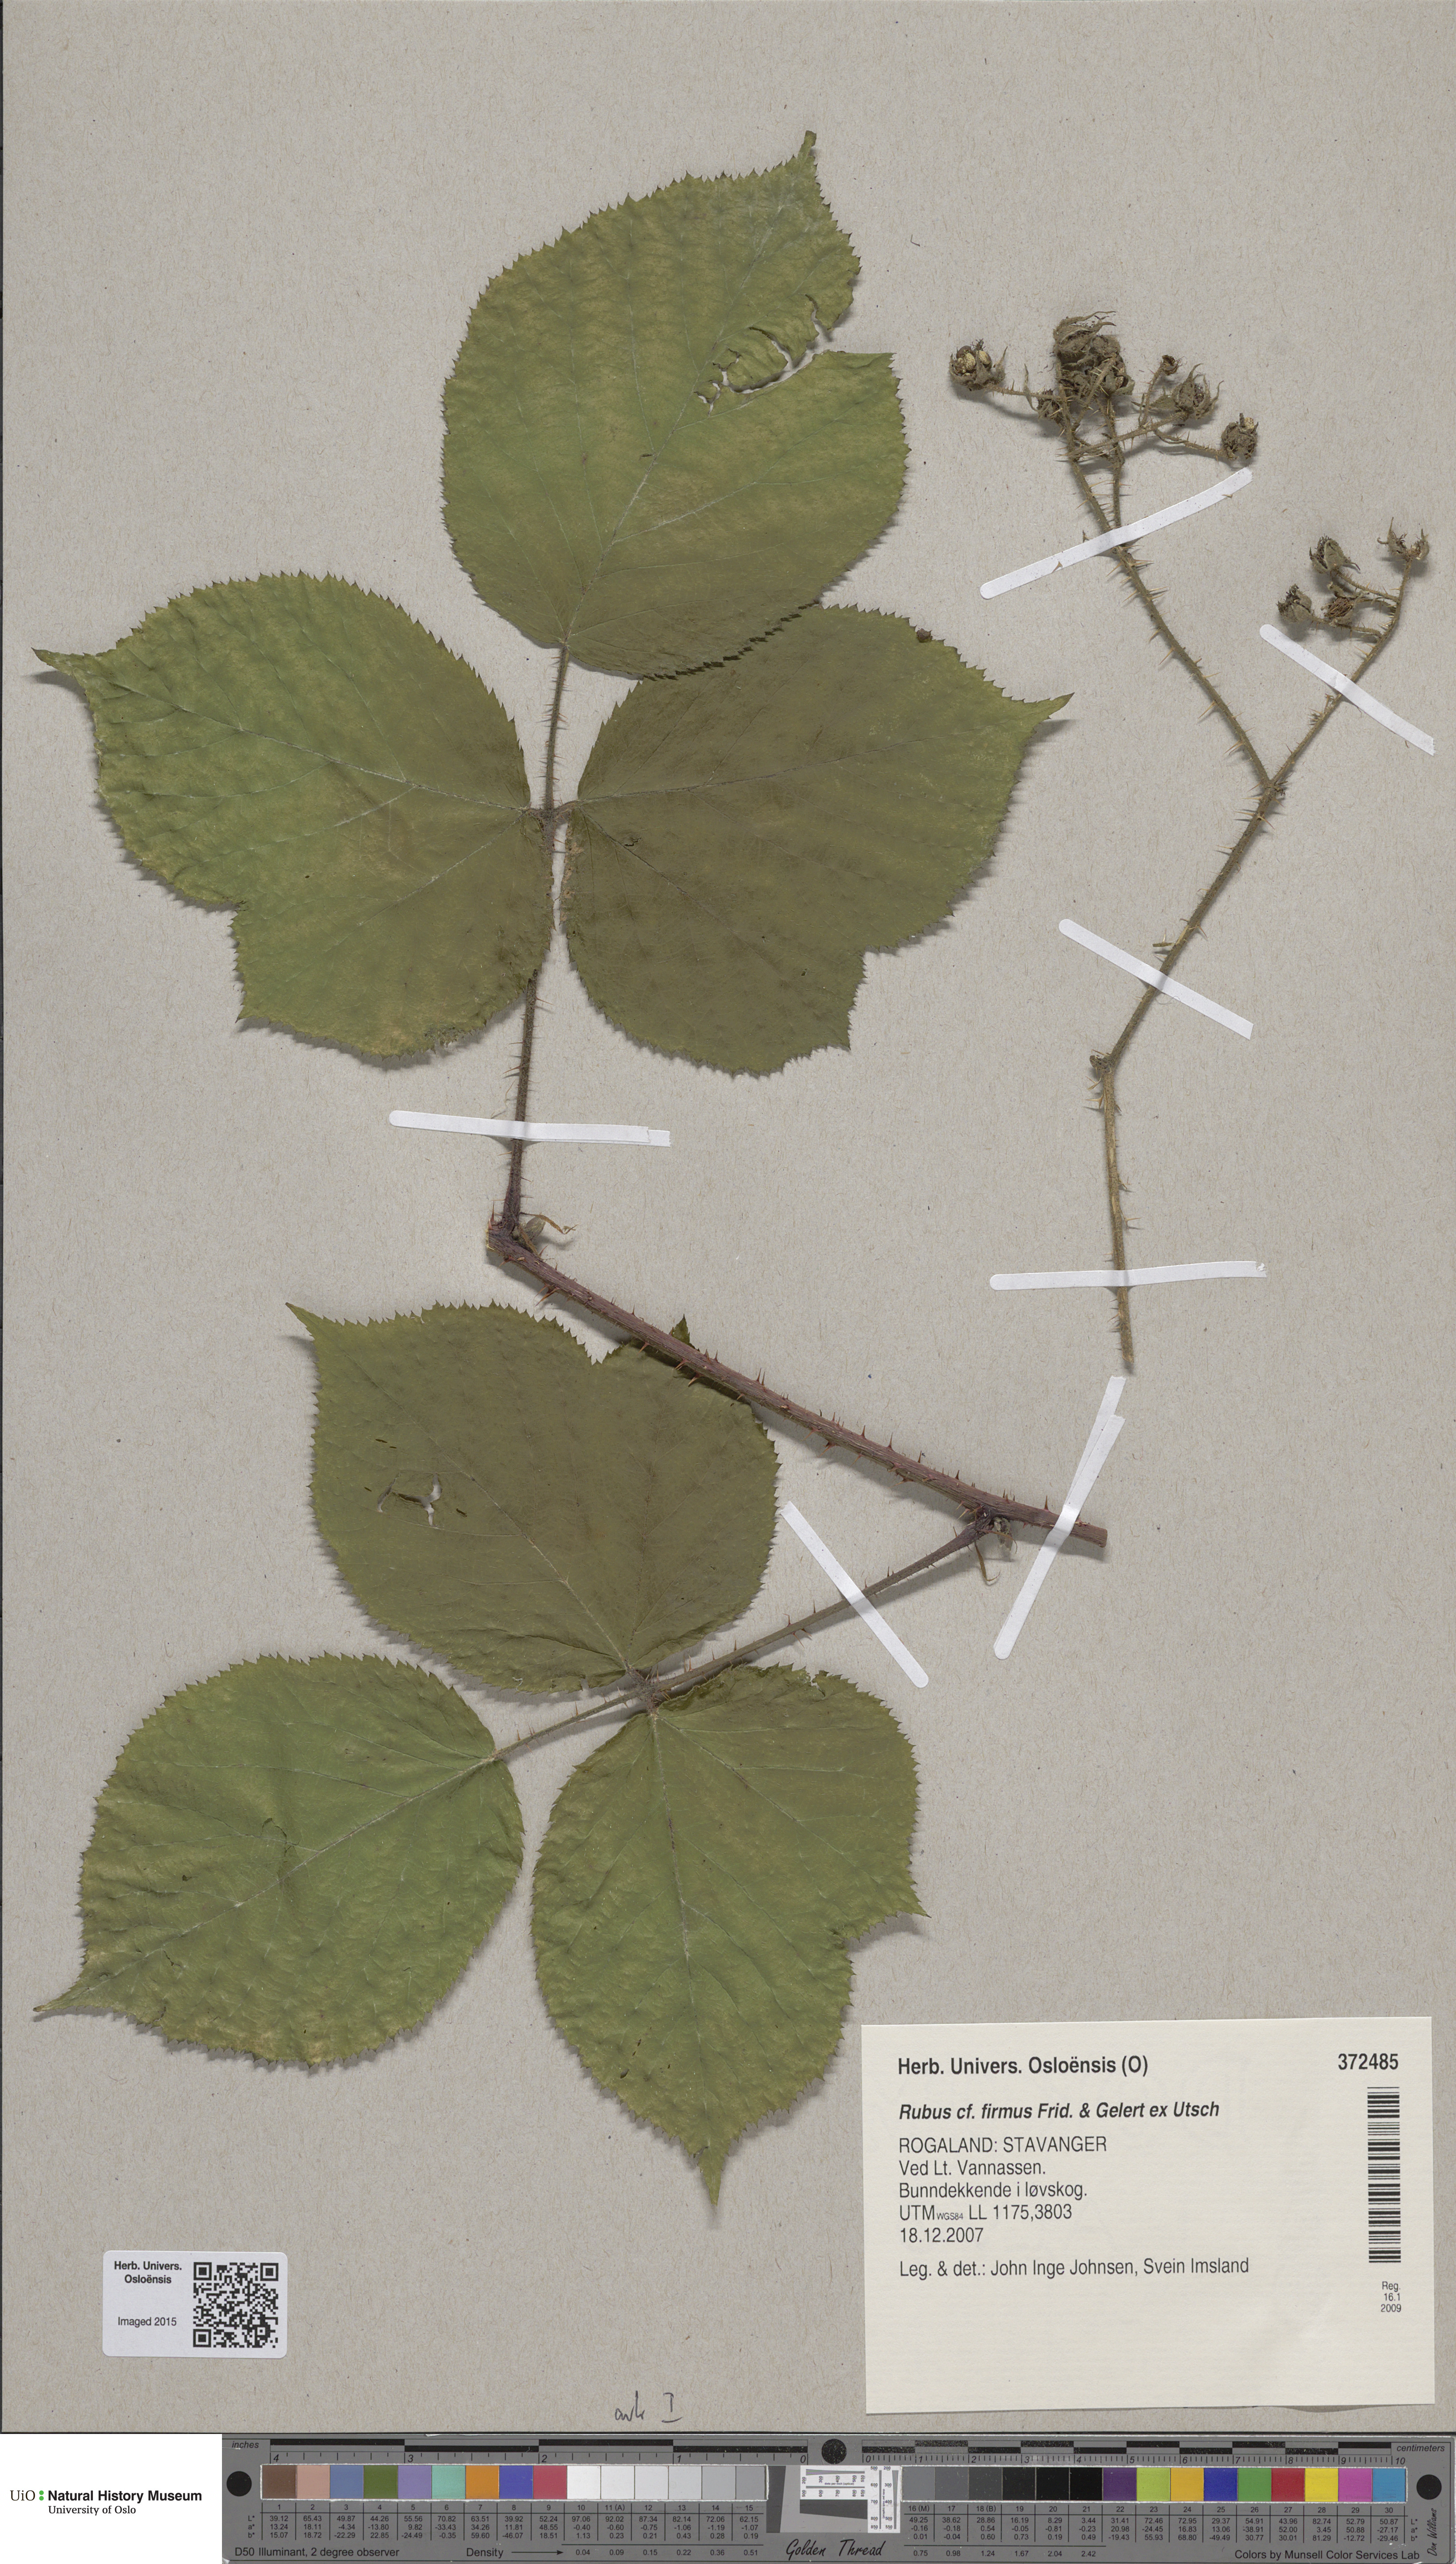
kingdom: Plantae
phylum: Tracheophyta
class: Magnoliopsida
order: Rosales
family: Rosaceae
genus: Rubus
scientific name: Rubus firmus
